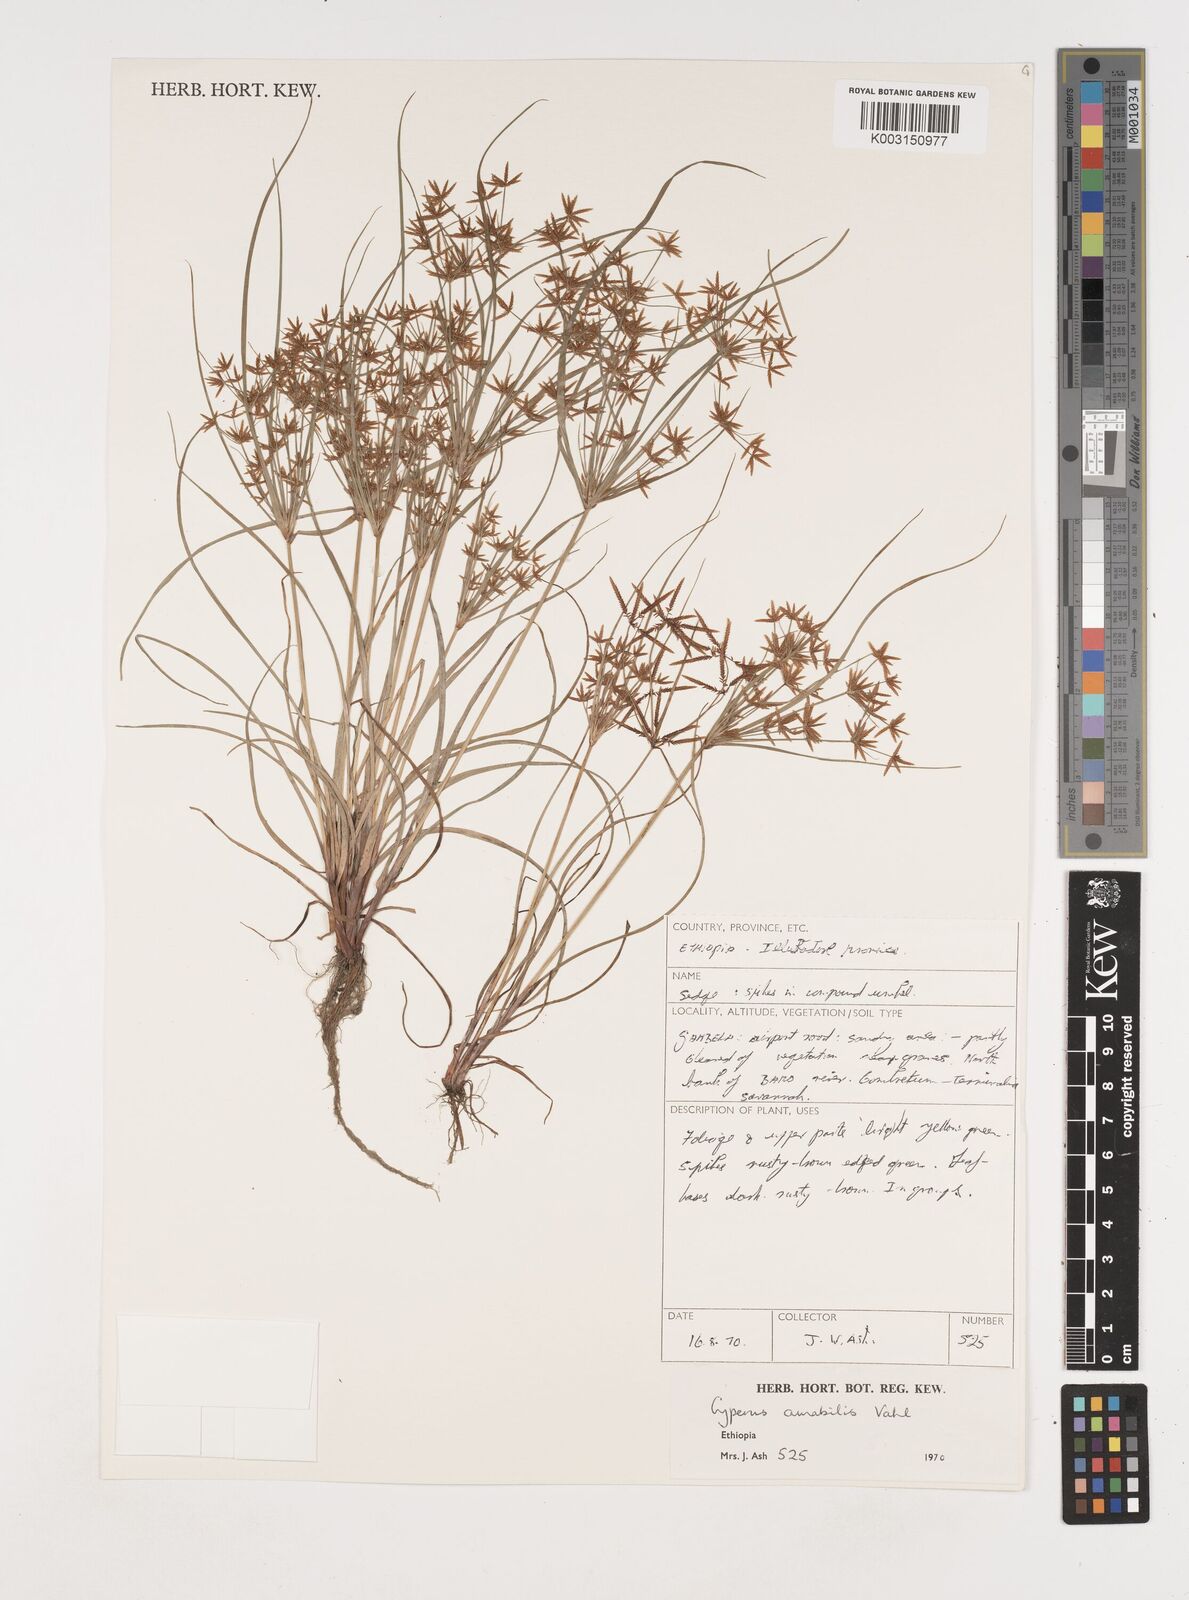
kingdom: Plantae
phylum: Tracheophyta
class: Liliopsida
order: Poales
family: Cyperaceae
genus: Cyperus
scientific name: Cyperus amabilis
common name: Foothill flat sedge
